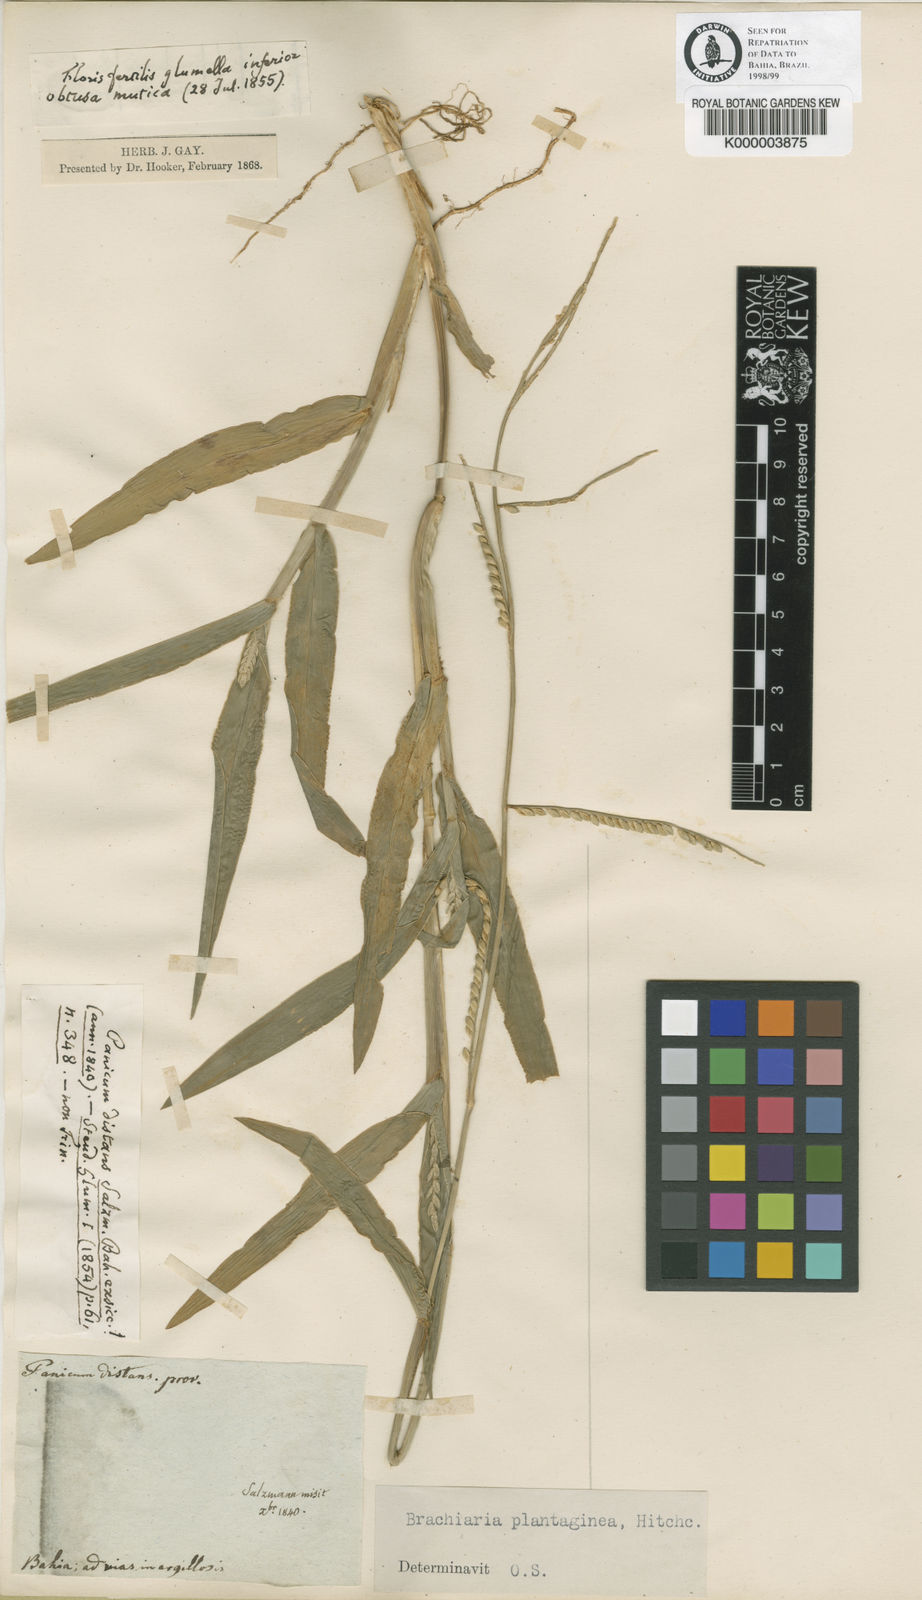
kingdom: Plantae
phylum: Tracheophyta
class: Liliopsida
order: Poales
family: Poaceae
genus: Urochloa
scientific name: Urochloa plantaginea
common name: Plantain signalgrass
